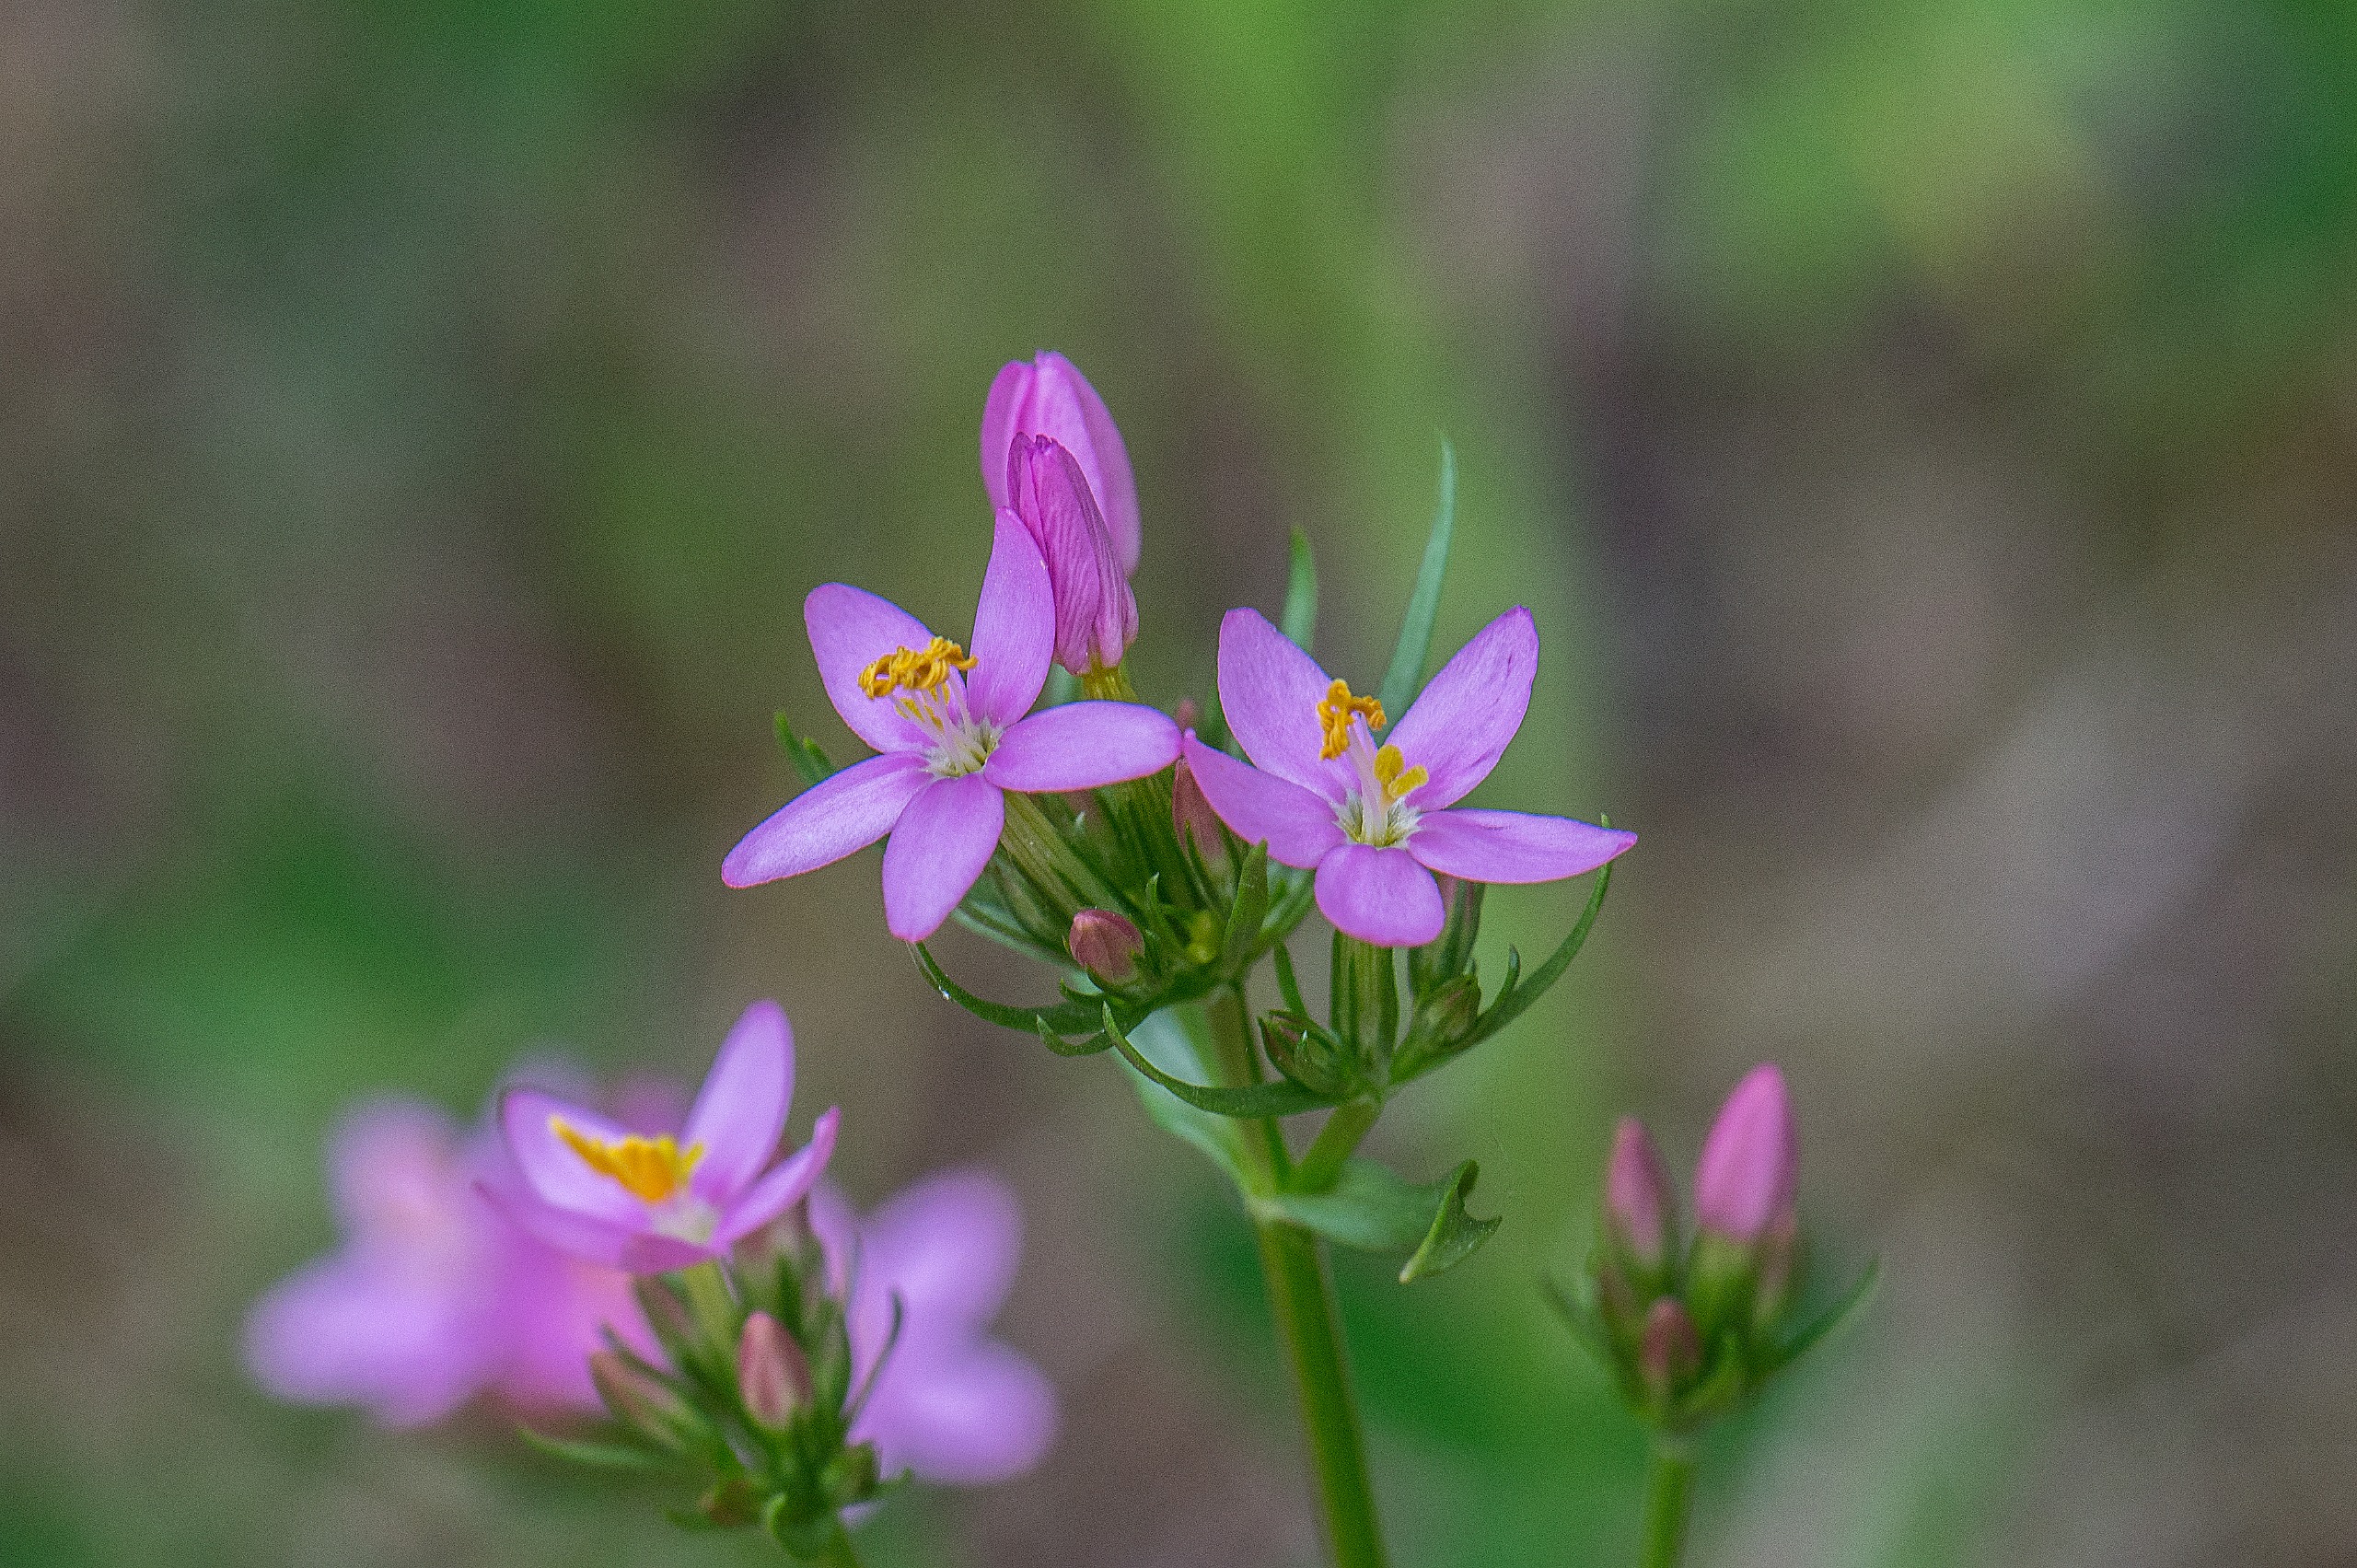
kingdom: Plantae
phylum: Tracheophyta
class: Magnoliopsida
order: Gentianales
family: Gentianaceae
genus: Centaurium
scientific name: Centaurium erythraea
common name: Mark-tusindgylden
